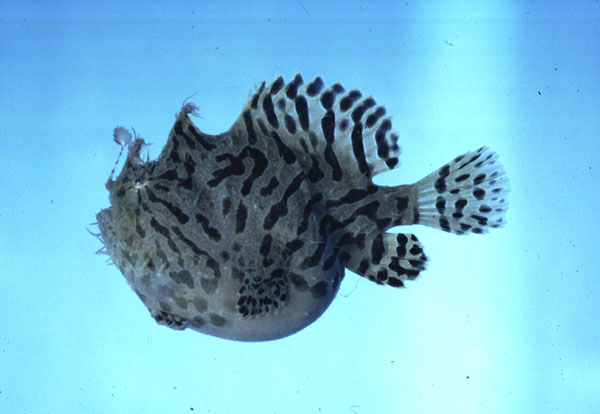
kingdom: Animalia
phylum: Chordata
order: Lophiiformes
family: Antennariidae
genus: Antennarius
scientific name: Antennarius hispidus
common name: Shaggy angler
